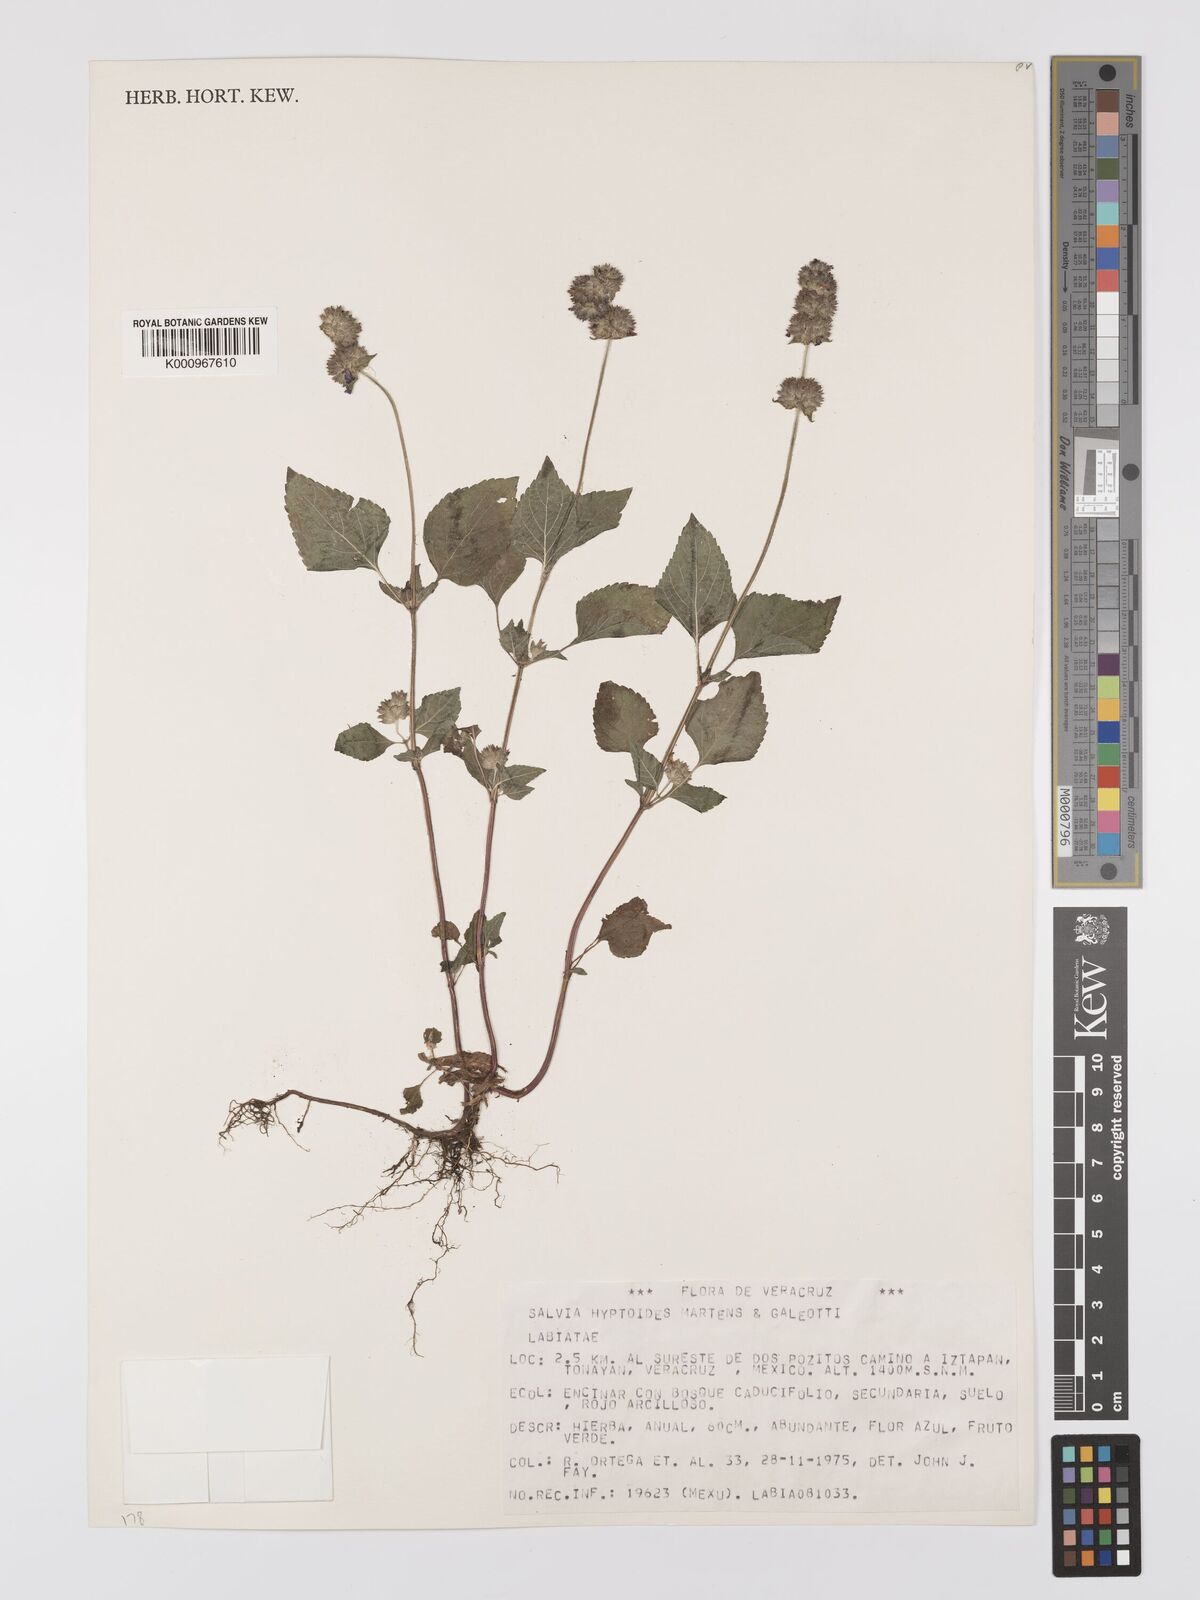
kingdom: Plantae
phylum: Tracheophyta
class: Magnoliopsida
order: Lamiales
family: Lamiaceae
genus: Salvia
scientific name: Salvia lasiocephala
